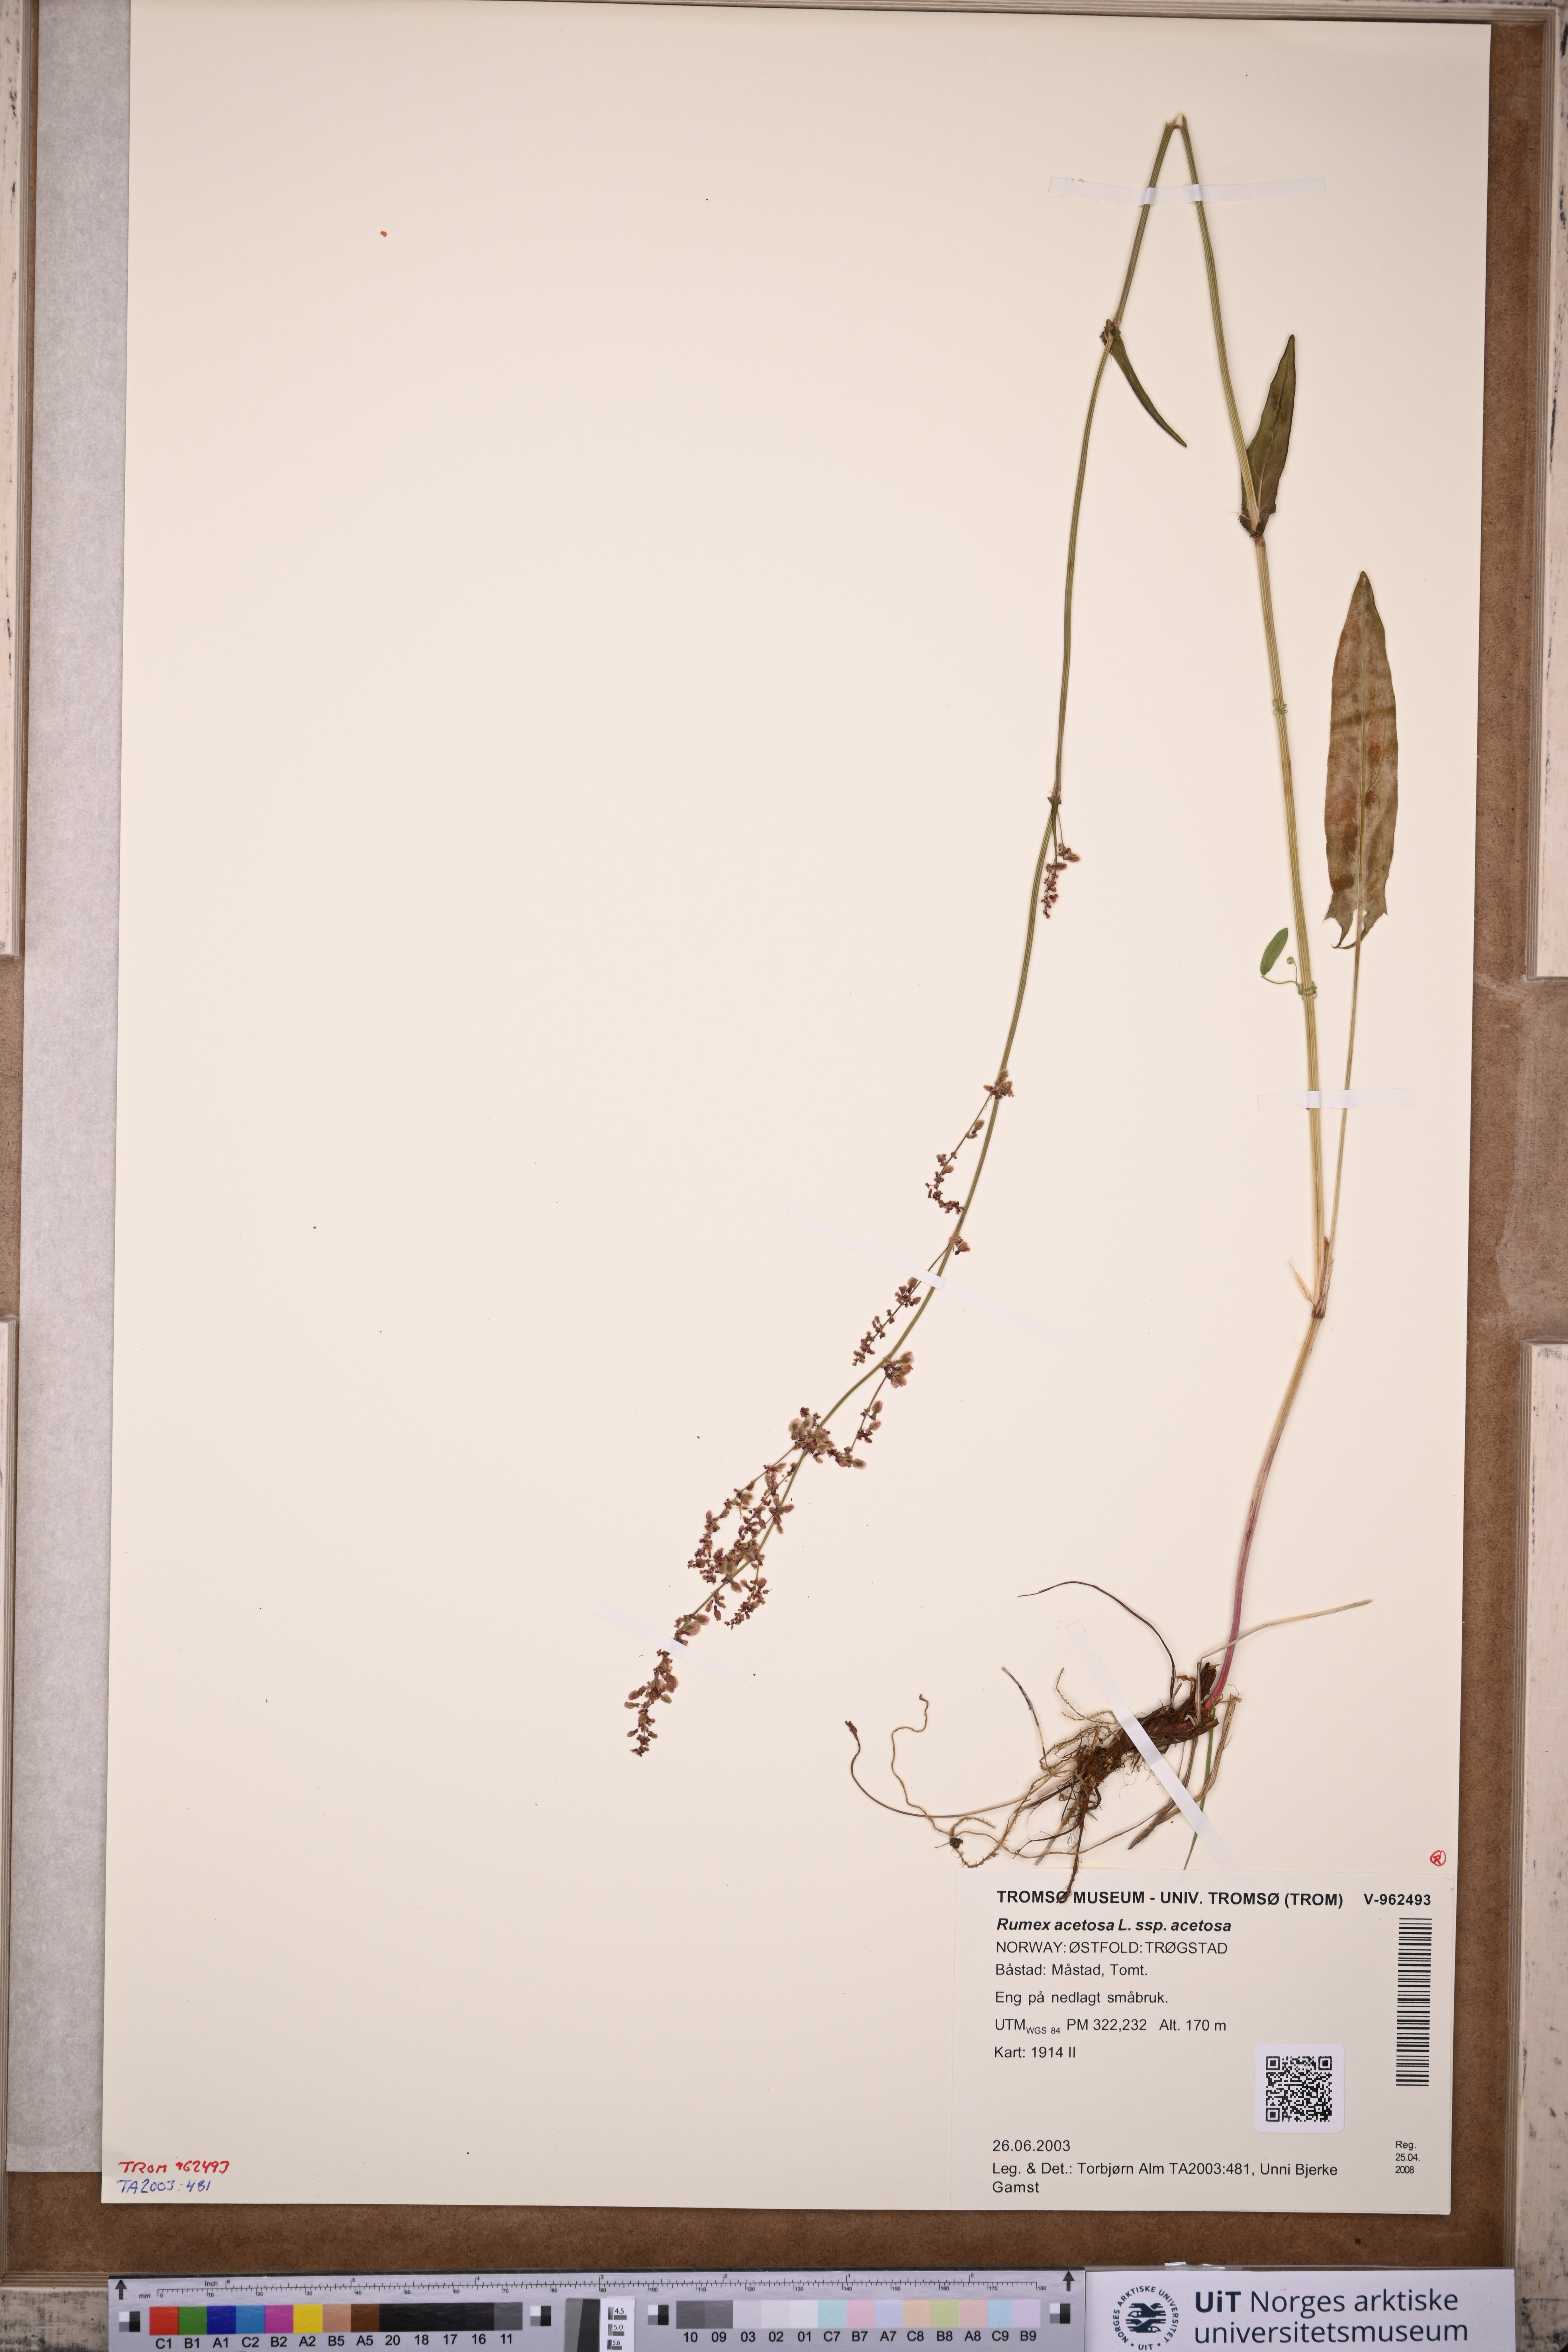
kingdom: Plantae
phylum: Tracheophyta
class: Magnoliopsida
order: Caryophyllales
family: Polygonaceae
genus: Rumex
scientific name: Rumex acetosa
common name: Garden sorrel
